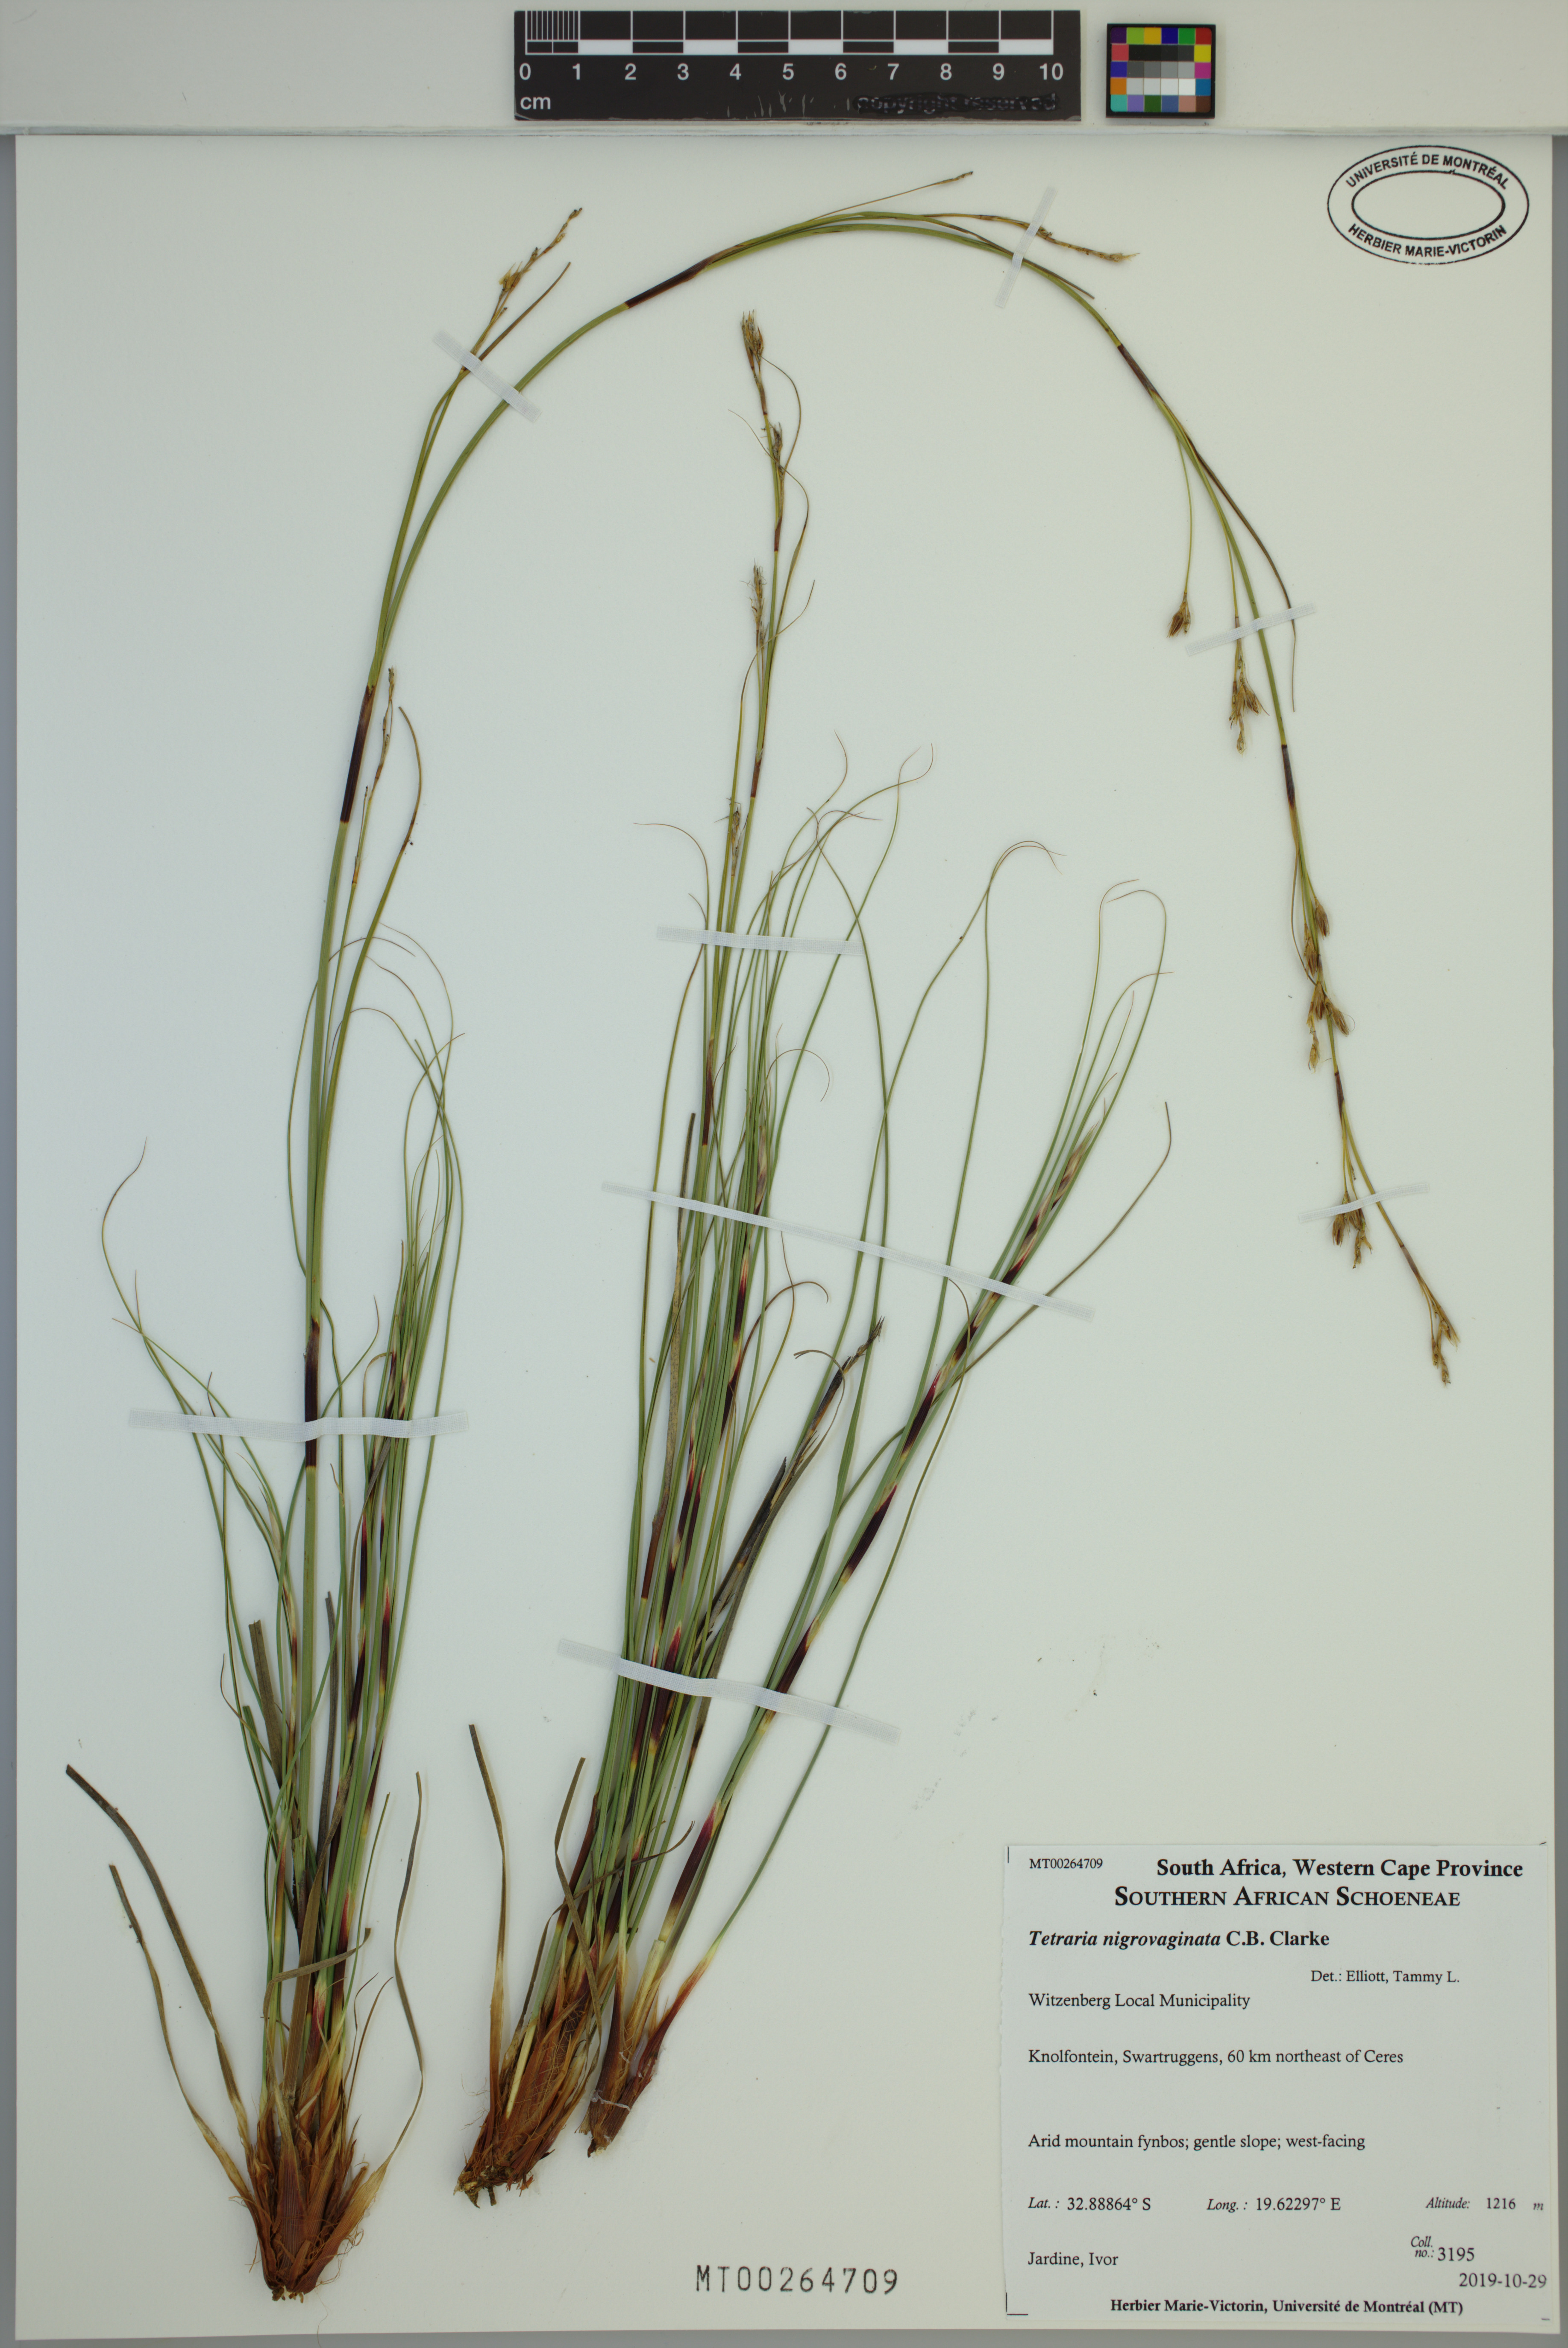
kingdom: Plantae
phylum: Tracheophyta
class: Liliopsida
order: Poales
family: Cyperaceae
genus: Tetraria
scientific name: Tetraria nigrovaginata
